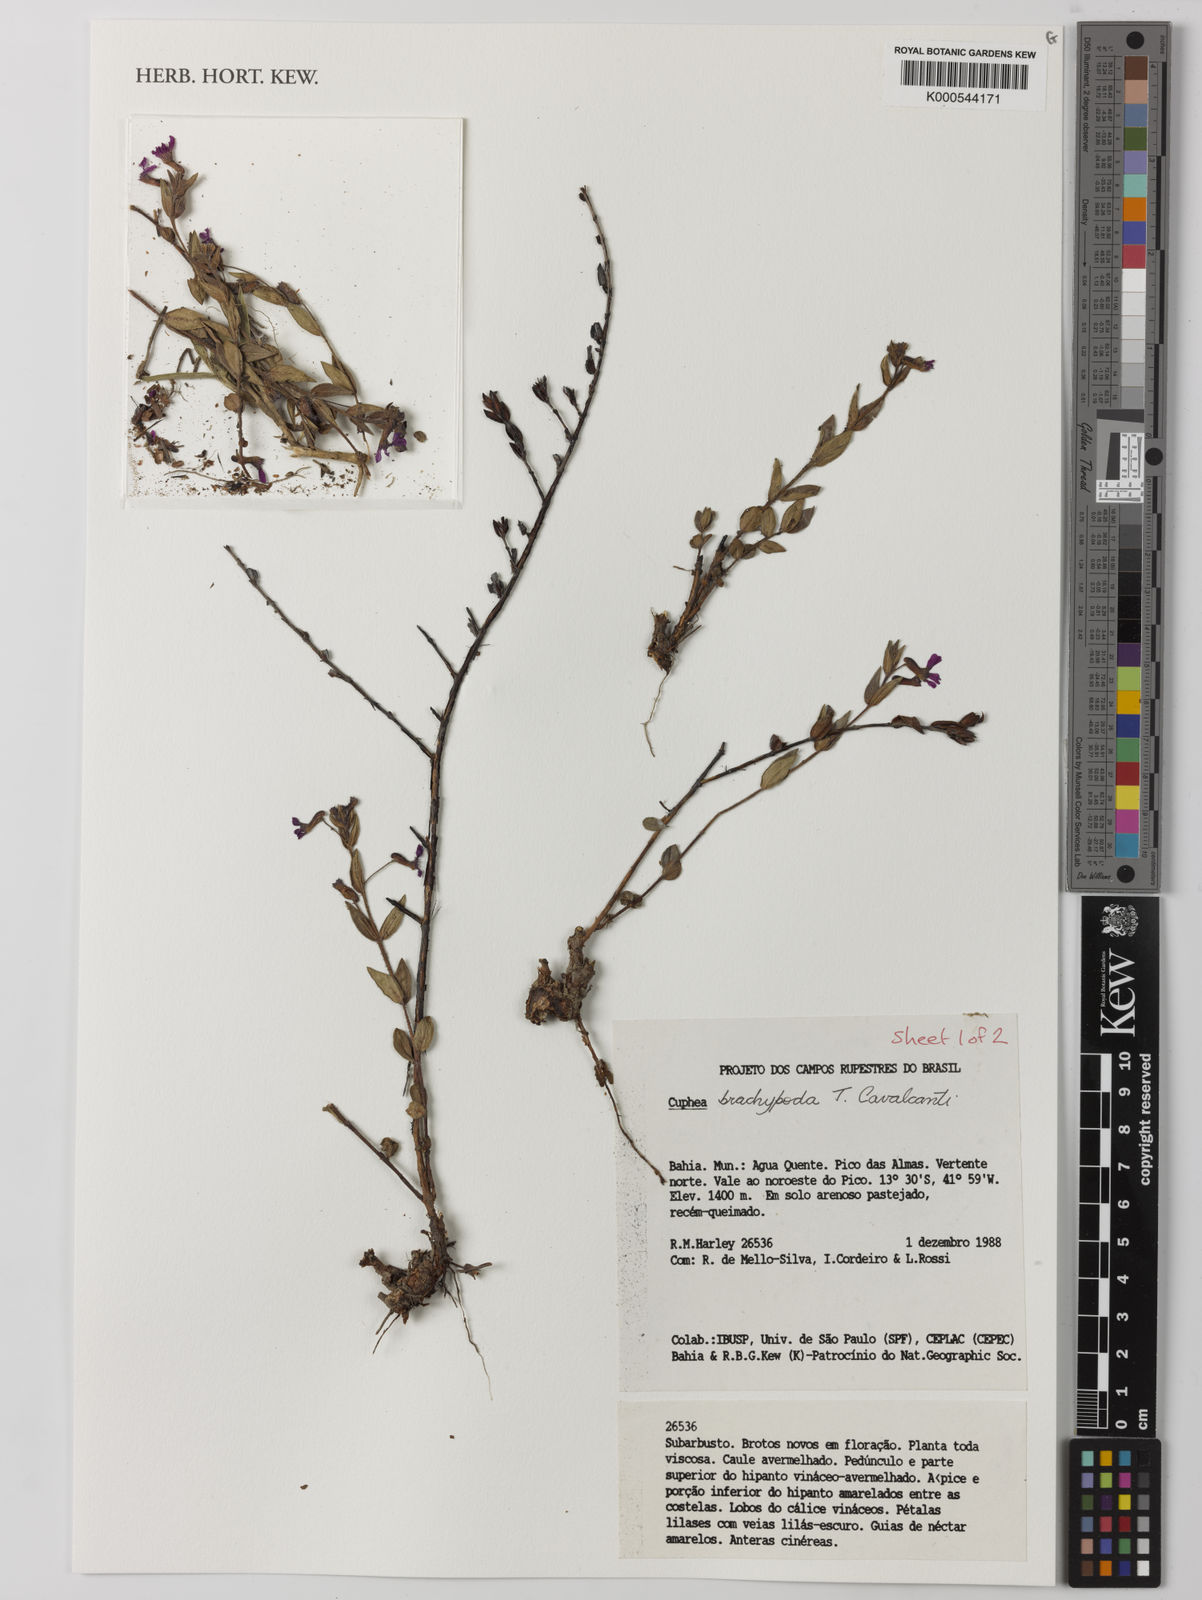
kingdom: Plantae
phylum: Tracheophyta
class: Magnoliopsida
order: Myrtales
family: Lythraceae
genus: Cuphea
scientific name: Cuphea brachypoda
